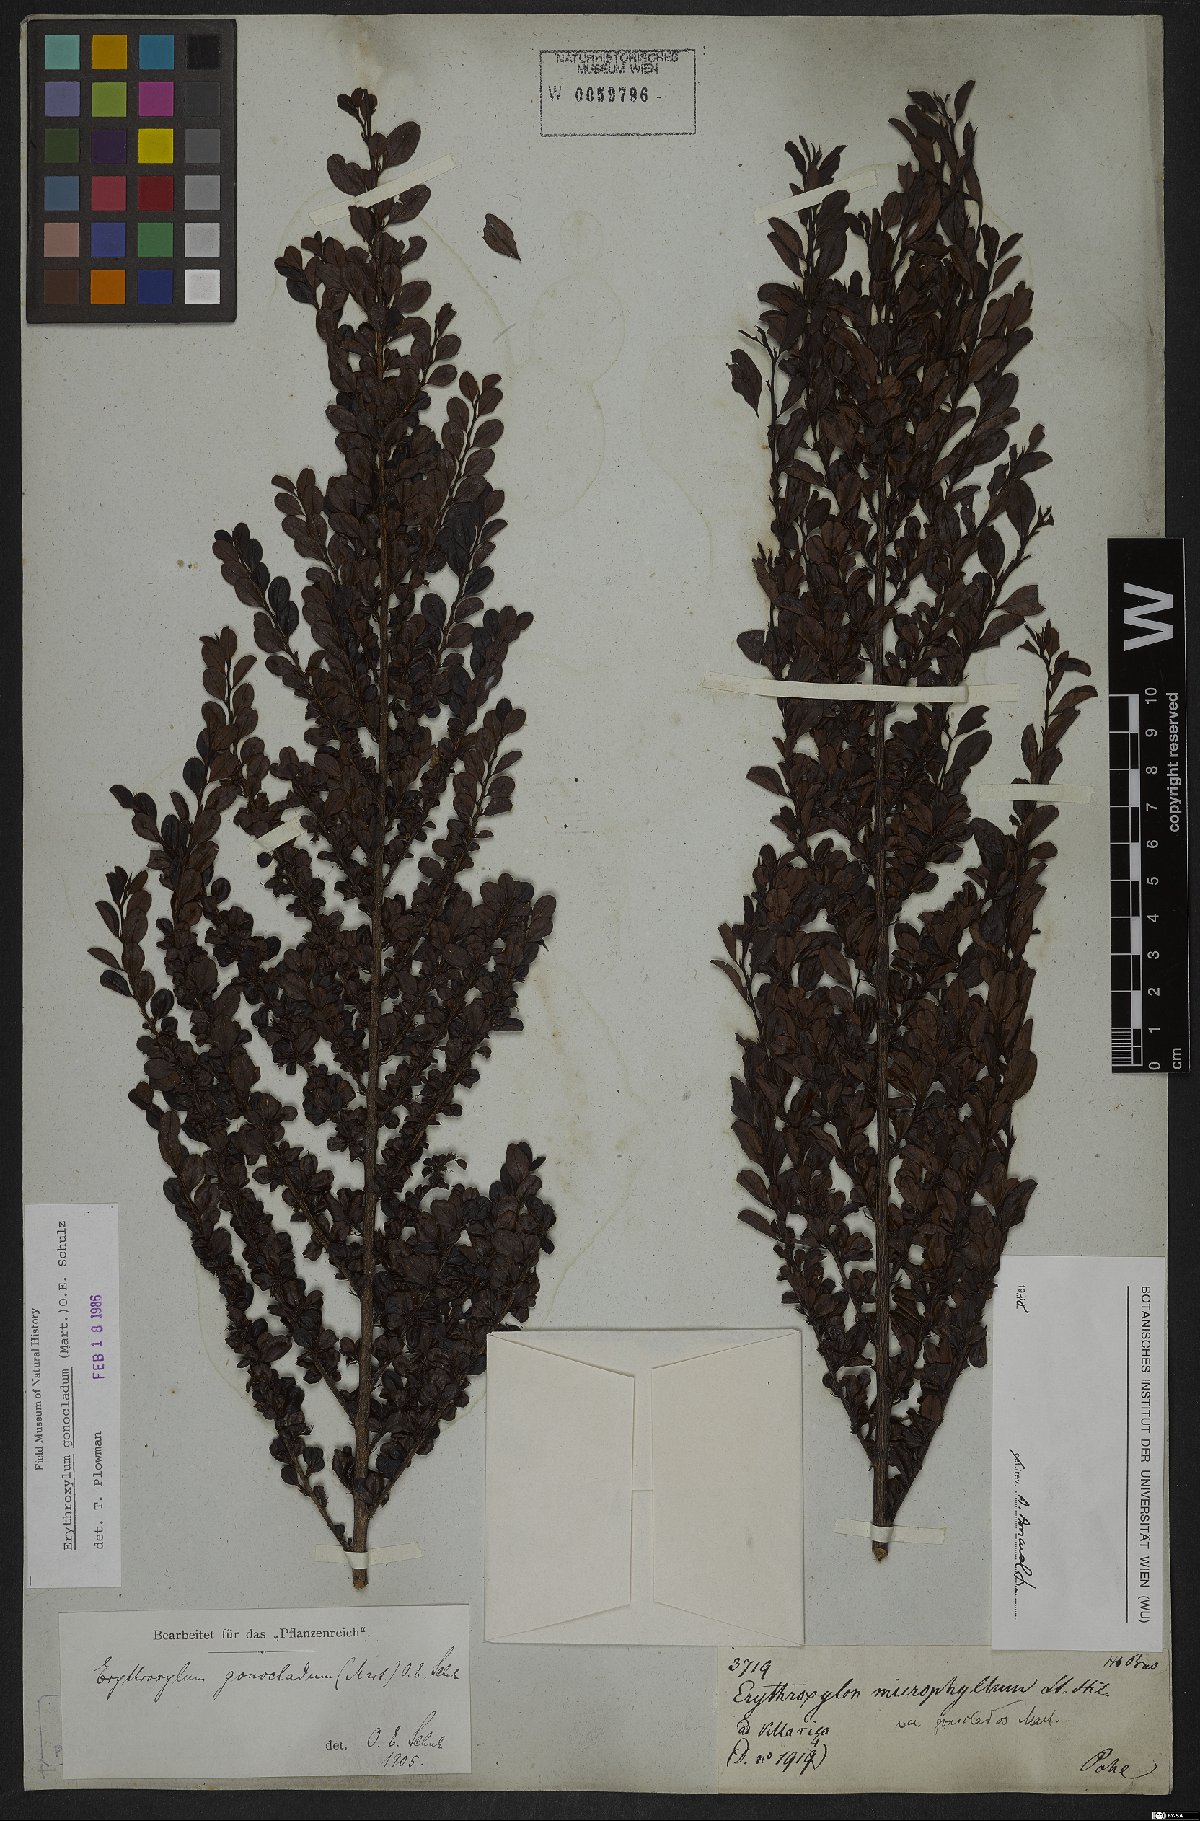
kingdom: Plantae
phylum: Tracheophyta
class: Magnoliopsida
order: Malpighiales
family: Erythroxylaceae
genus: Erythroxylum
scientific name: Erythroxylum gonocladum
